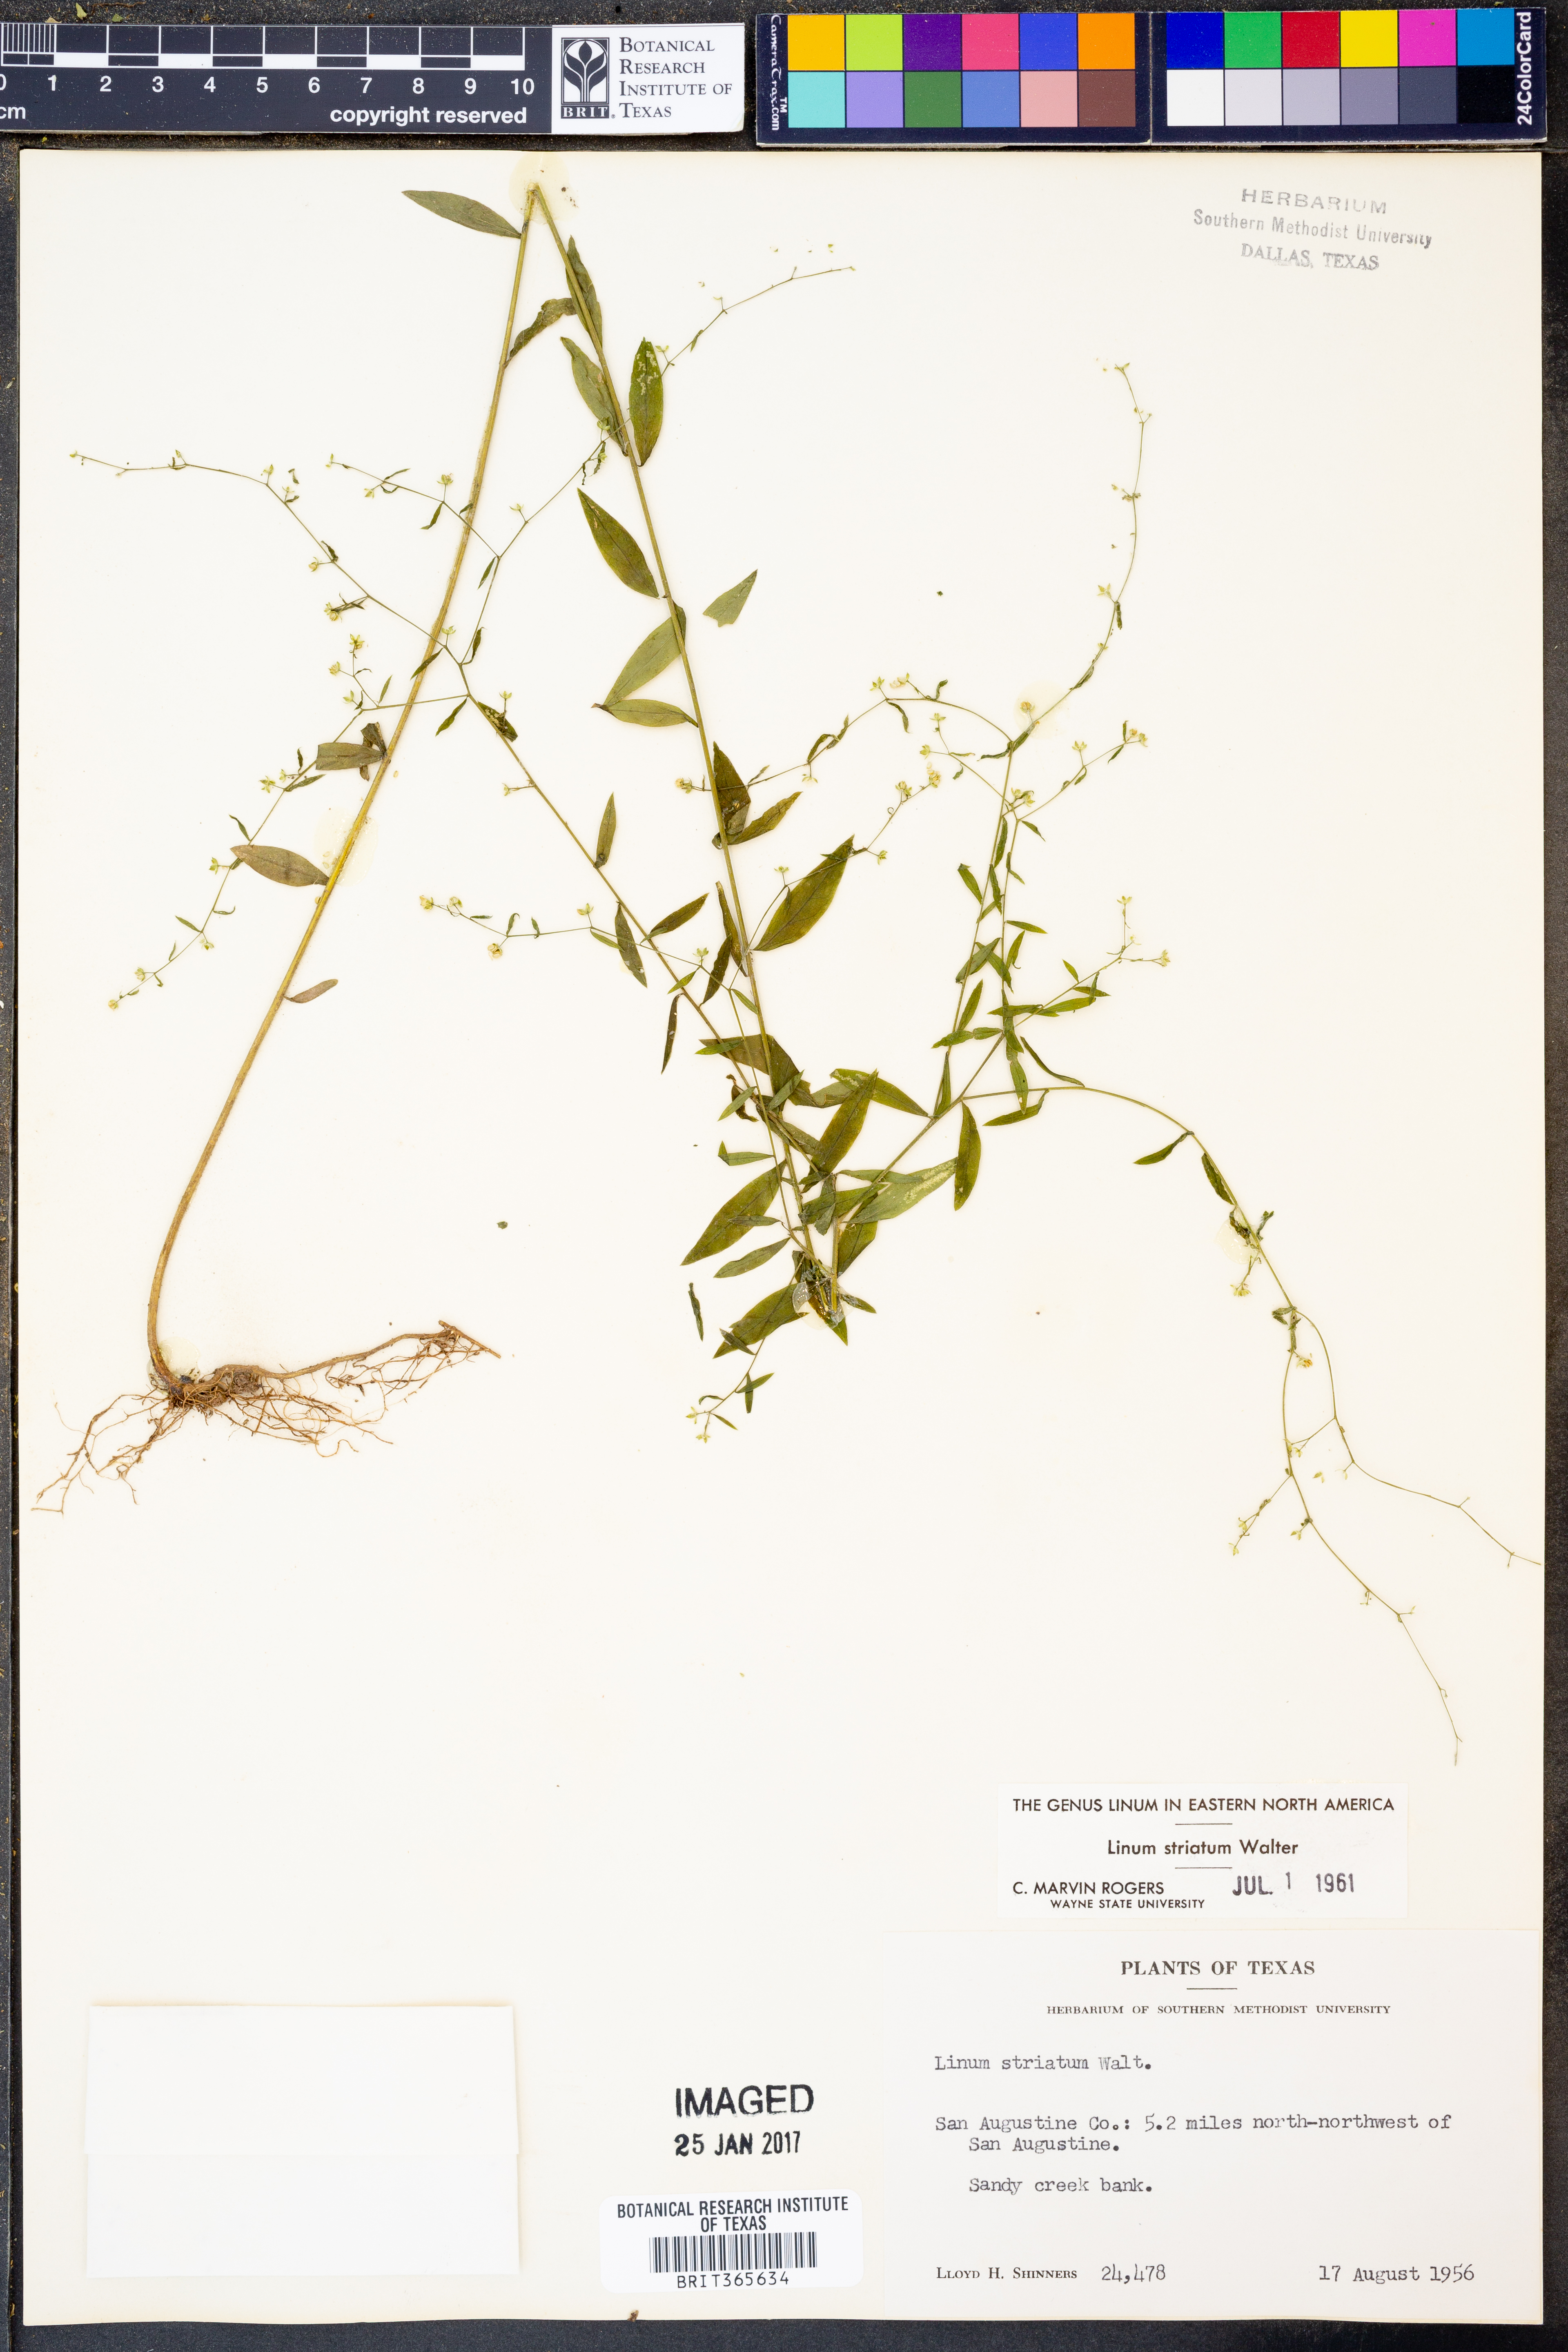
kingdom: Plantae
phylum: Tracheophyta
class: Magnoliopsida
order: Malpighiales
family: Linaceae
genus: Linum
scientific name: Linum striatum
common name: Ridged yellow flax
